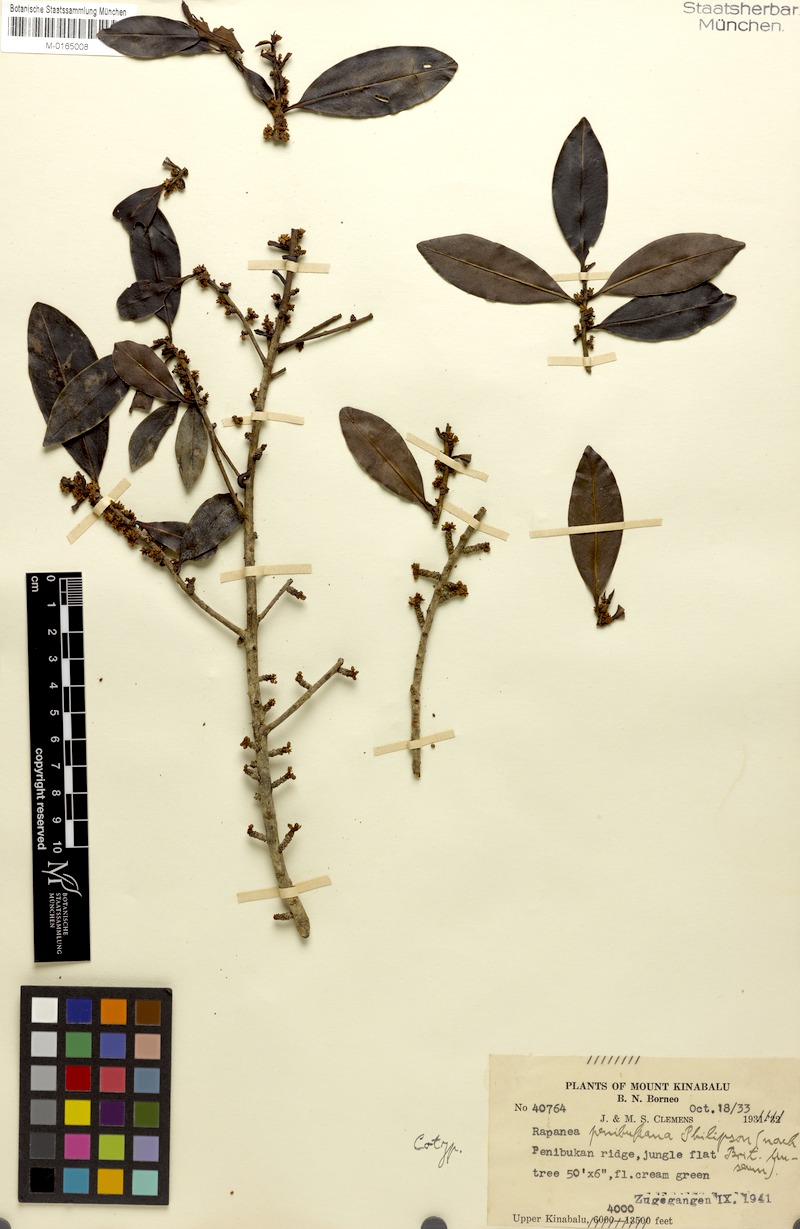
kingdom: Plantae
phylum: Tracheophyta
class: Magnoliopsida
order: Ericales
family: Primulaceae
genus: Myrsine
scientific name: Myrsine penibukana
